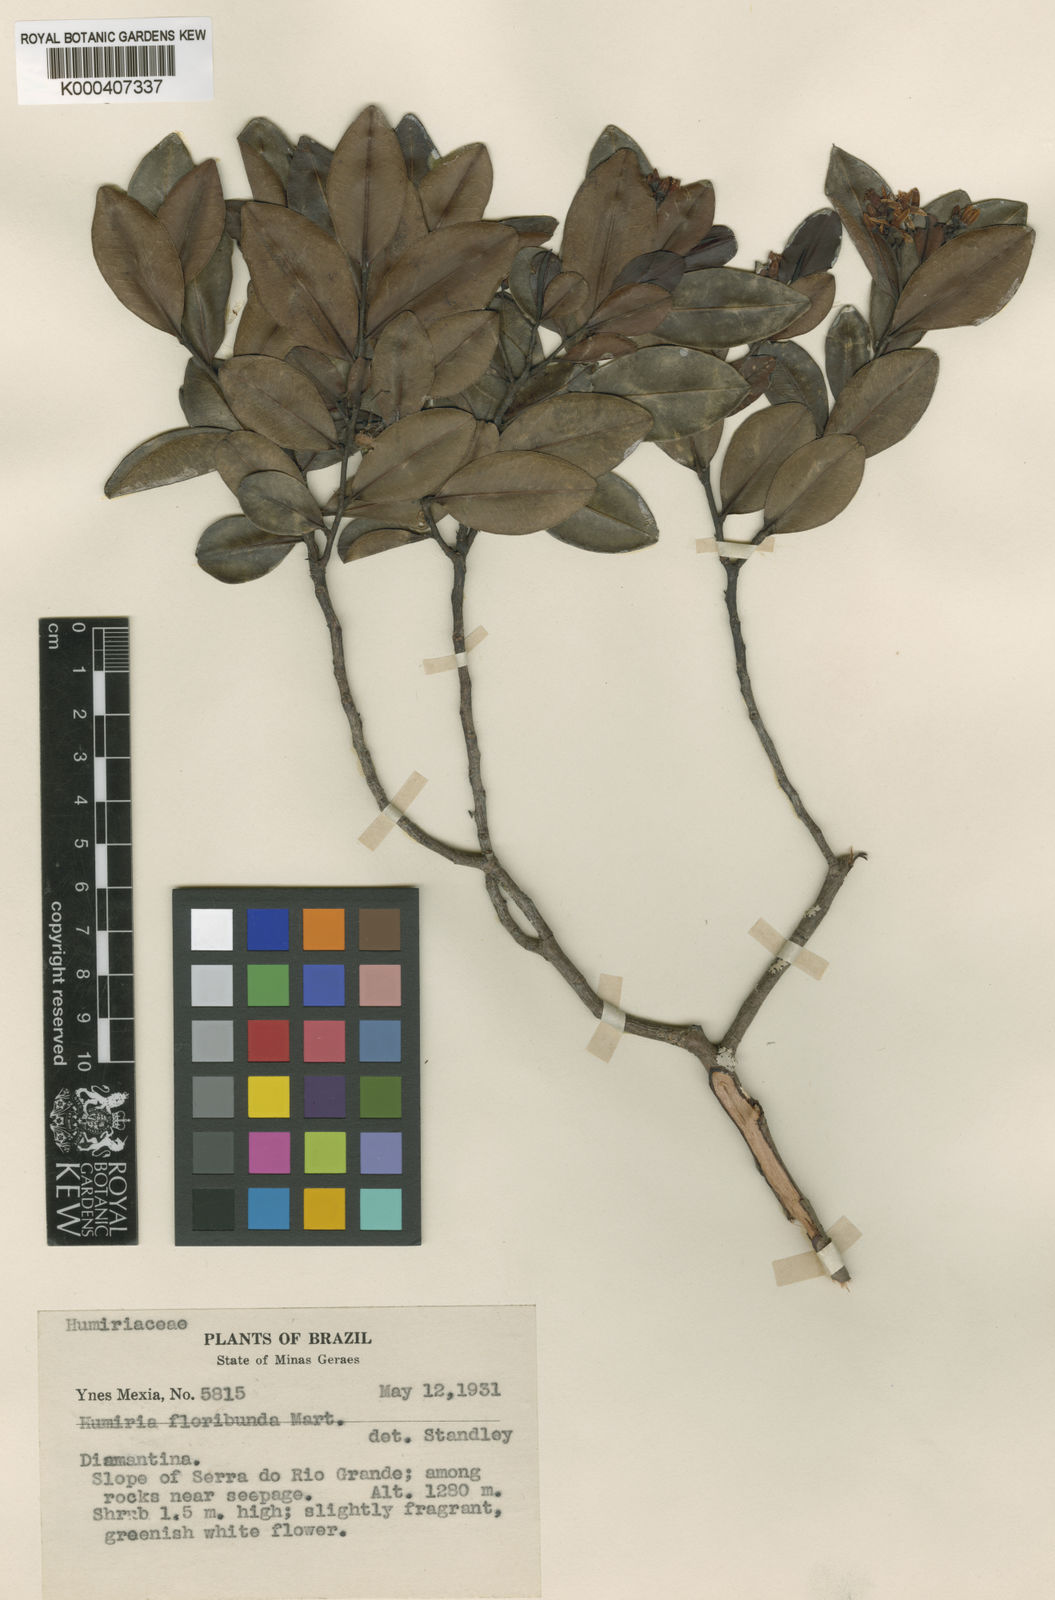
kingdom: Plantae
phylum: Tracheophyta
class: Magnoliopsida
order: Malpighiales
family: Humiriaceae
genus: Humiria
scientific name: Humiria parvifolia
